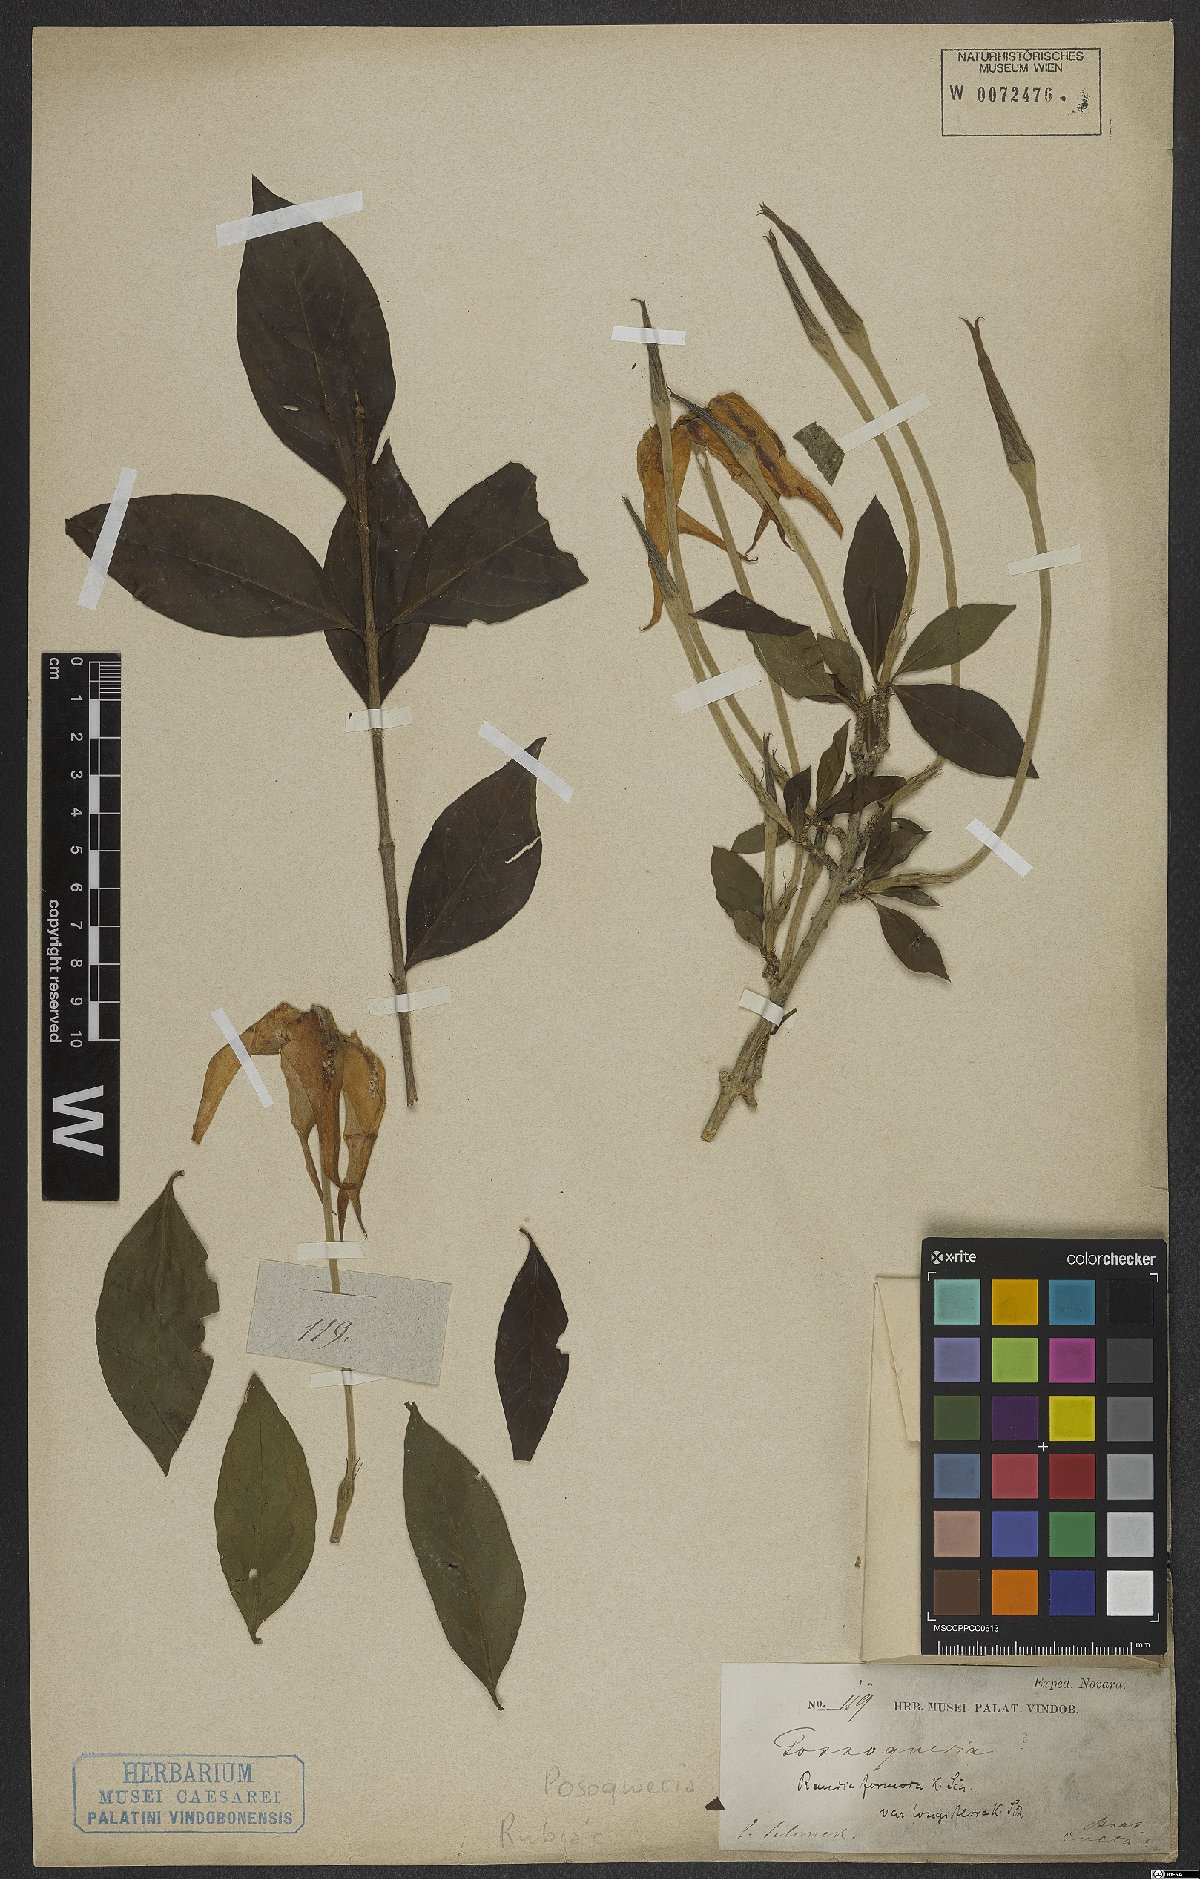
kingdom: Plantae
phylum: Tracheophyta
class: Magnoliopsida
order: Gentianales
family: Rubiaceae
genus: Posoqueria
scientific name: Posoqueria
